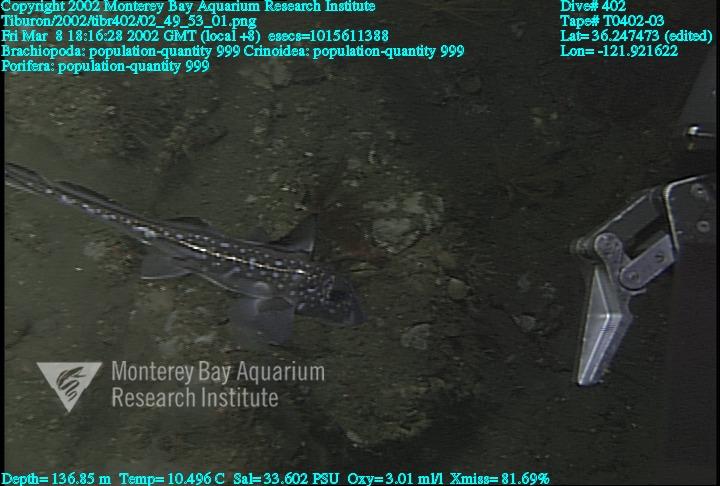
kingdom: Animalia
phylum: Porifera
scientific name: Porifera
